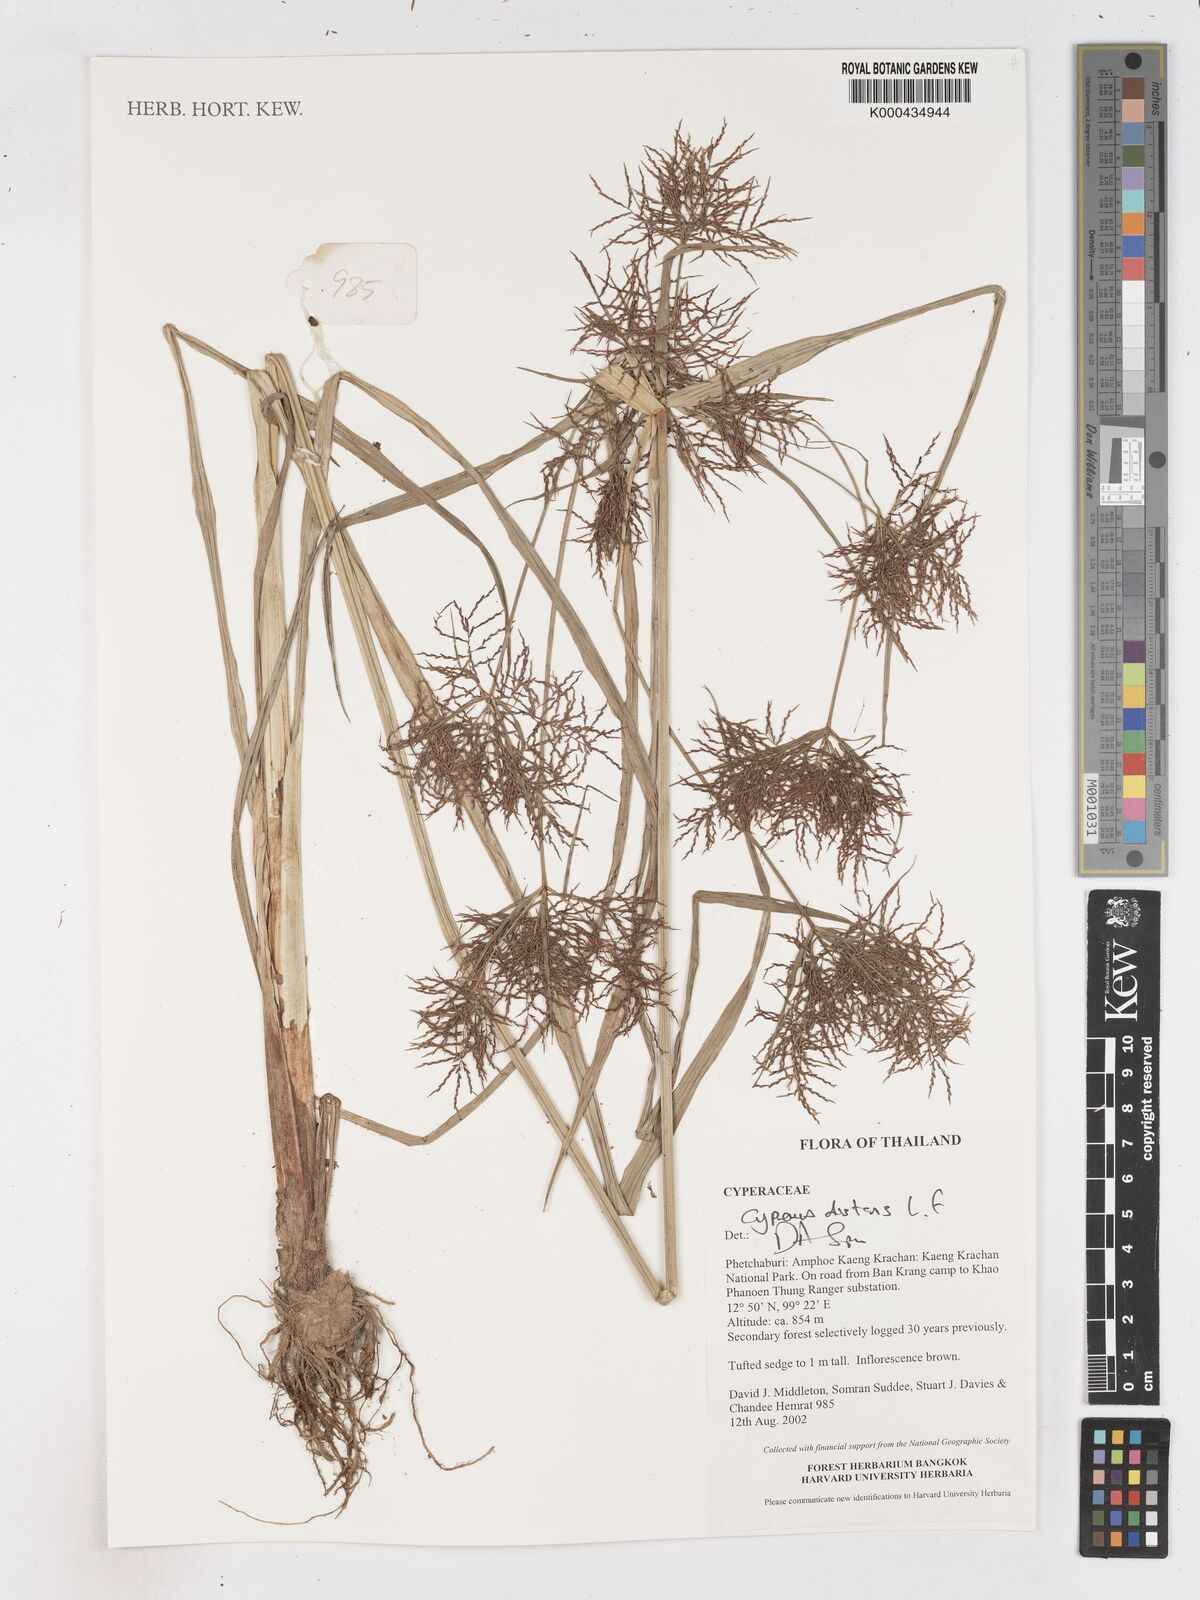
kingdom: Plantae
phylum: Tracheophyta
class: Liliopsida
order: Poales
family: Cyperaceae
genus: Cyperus
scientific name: Cyperus distans
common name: Slender cyperus
